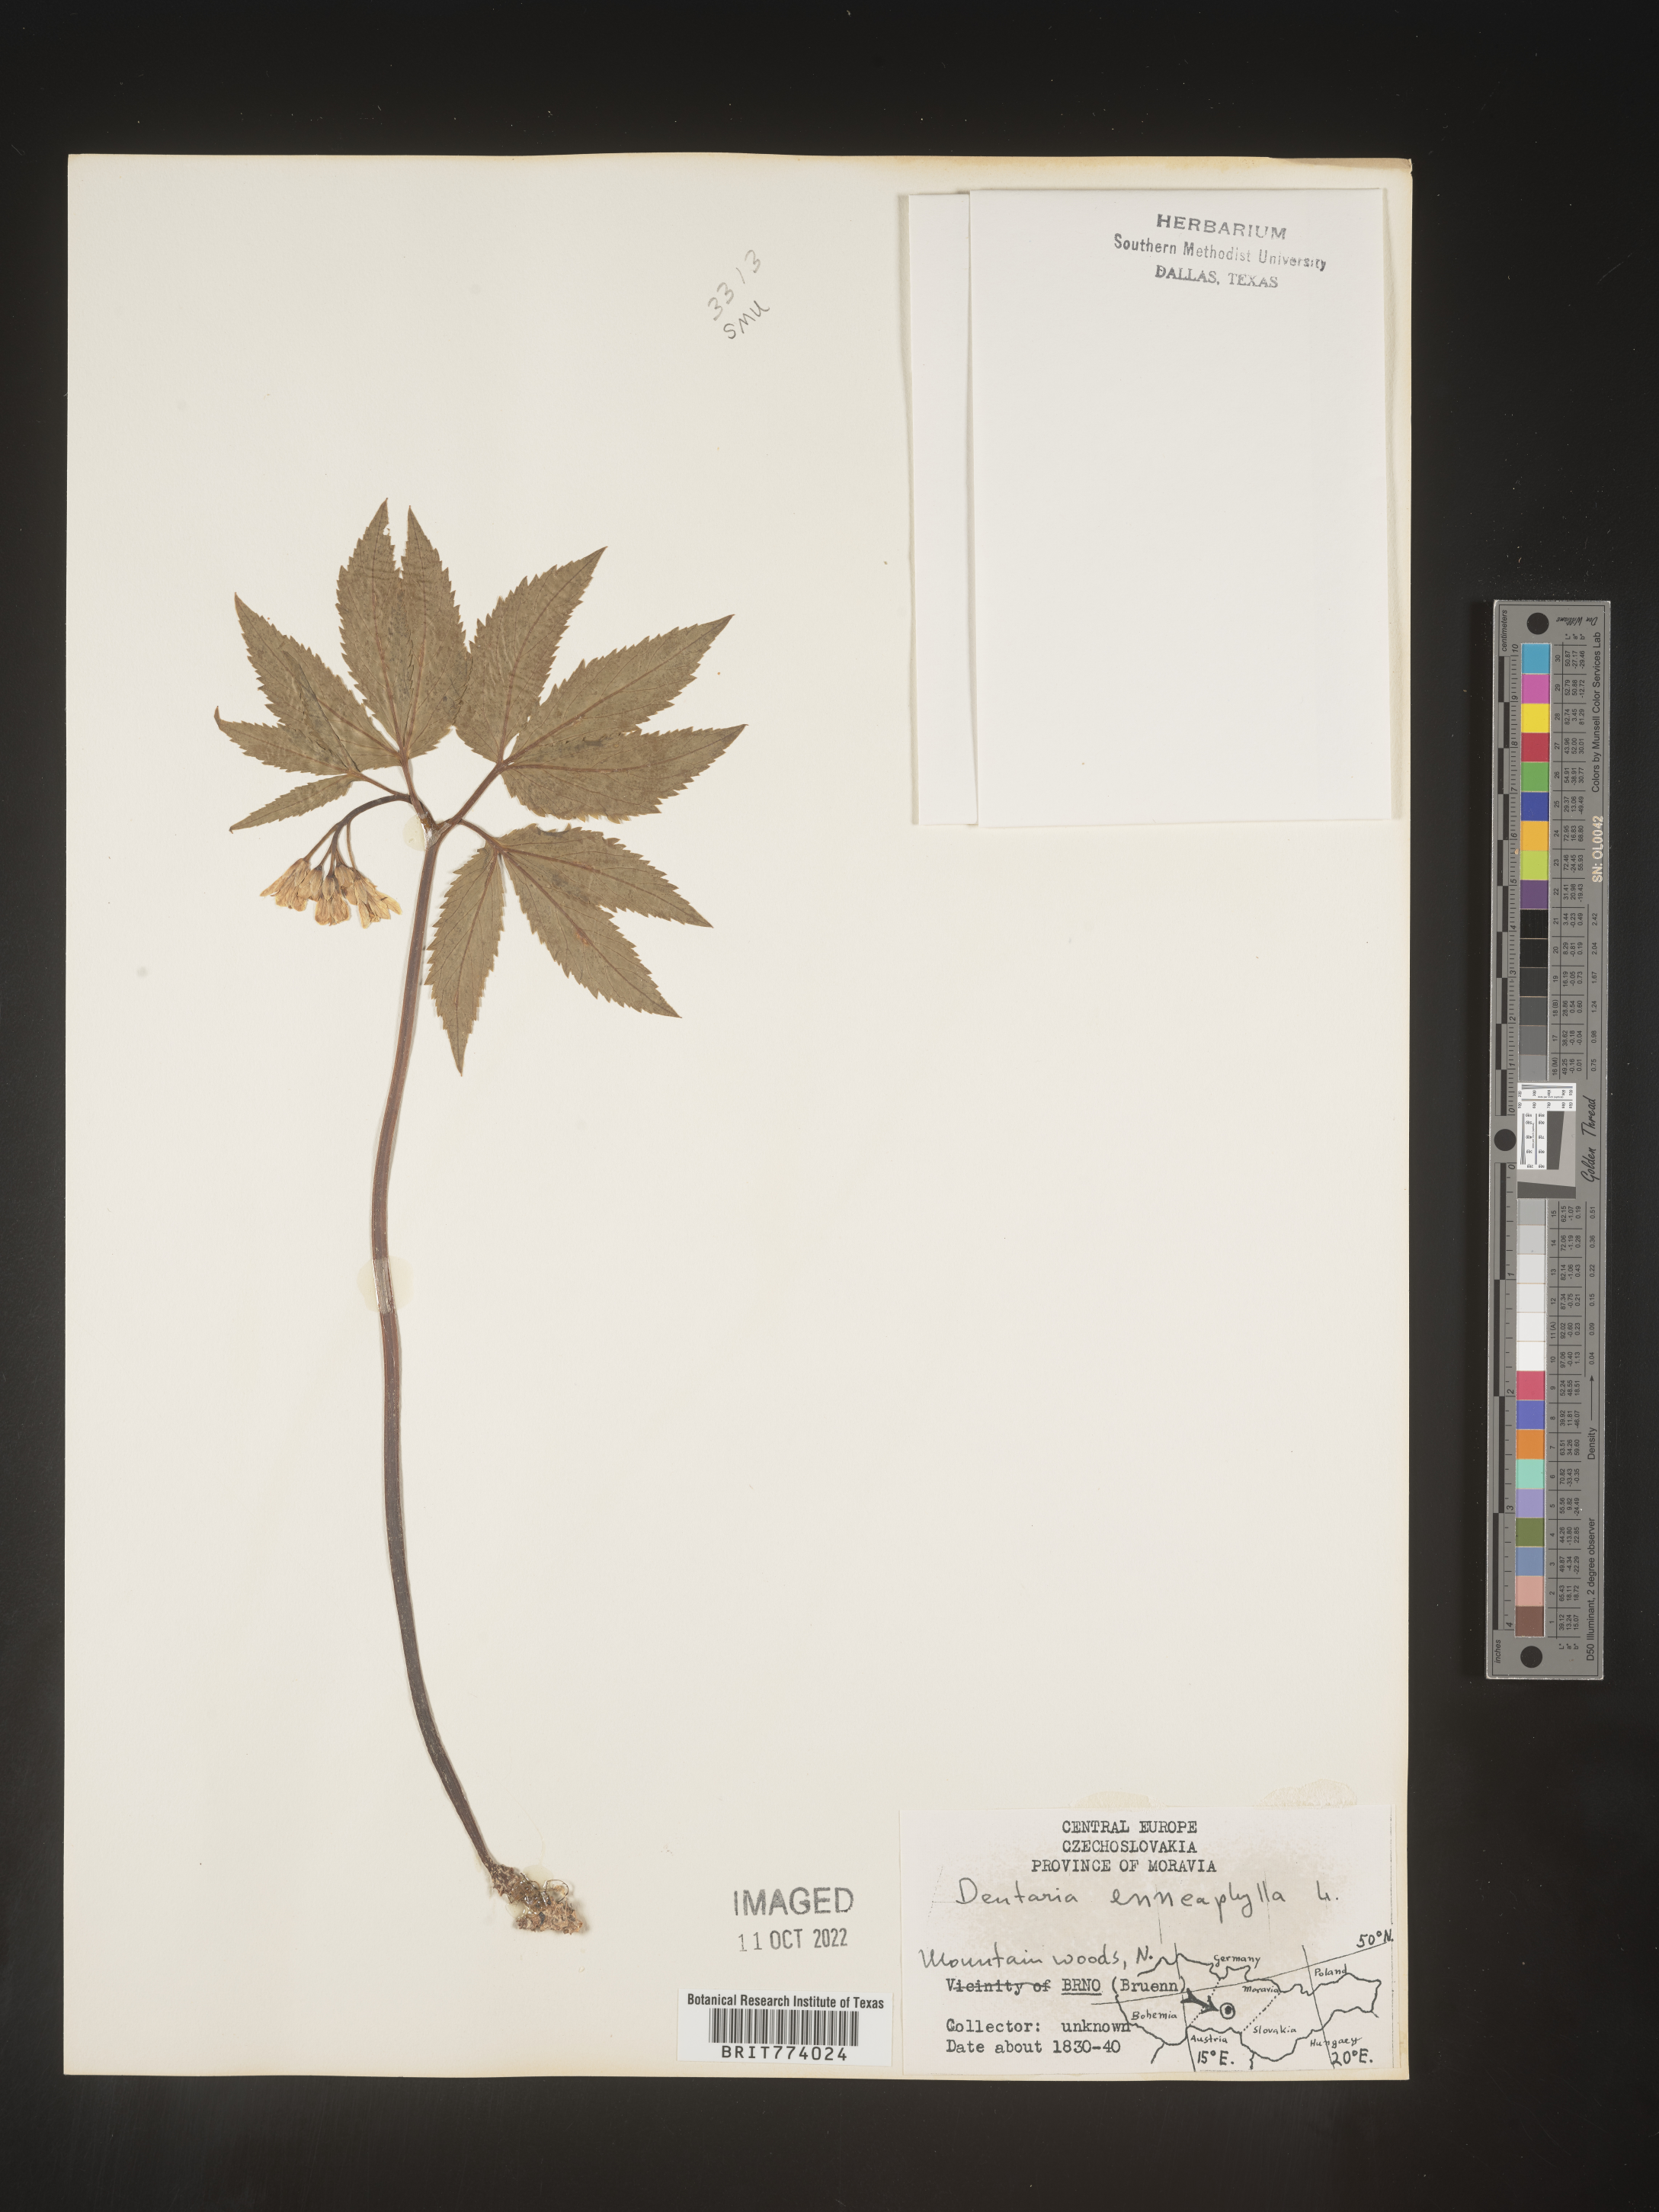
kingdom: Plantae
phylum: Tracheophyta
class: Magnoliopsida
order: Brassicales
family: Brassicaceae
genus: Cardamine
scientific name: Cardamine
